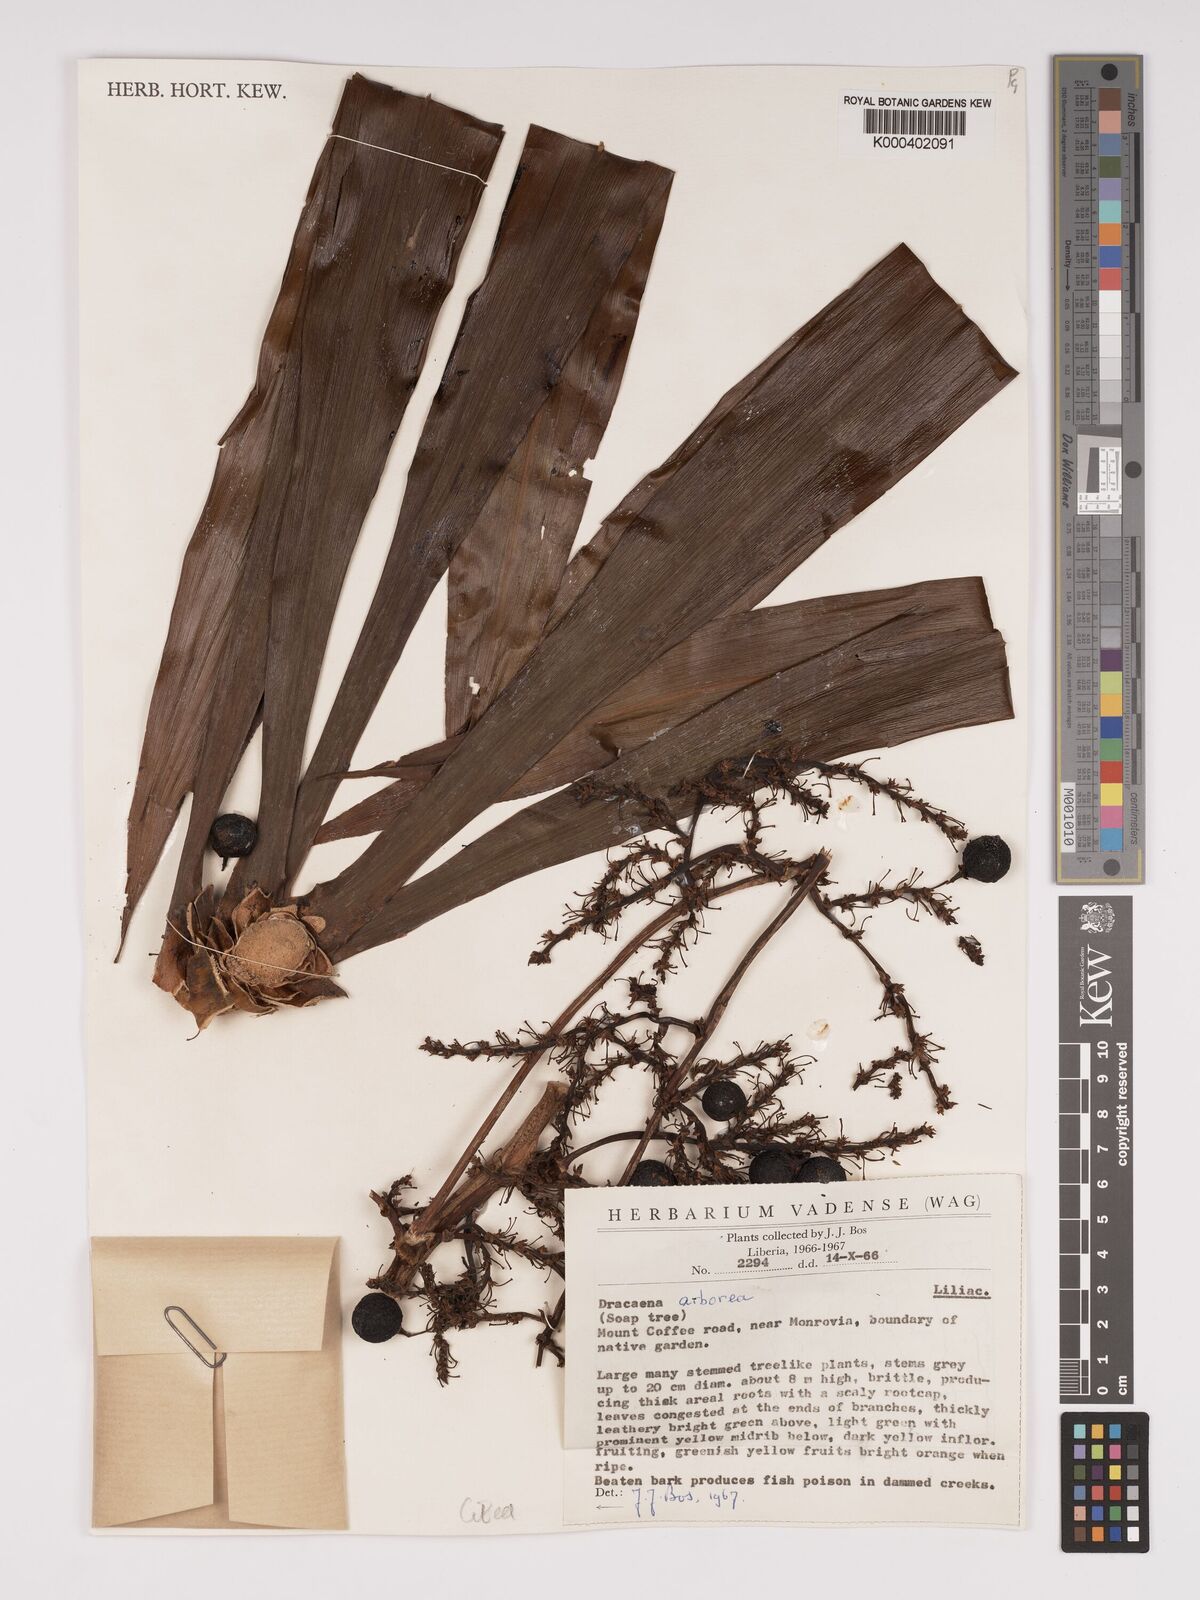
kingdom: Plantae
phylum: Tracheophyta
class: Liliopsida
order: Asparagales
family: Asparagaceae
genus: Dracaena
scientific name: Dracaena arborea
